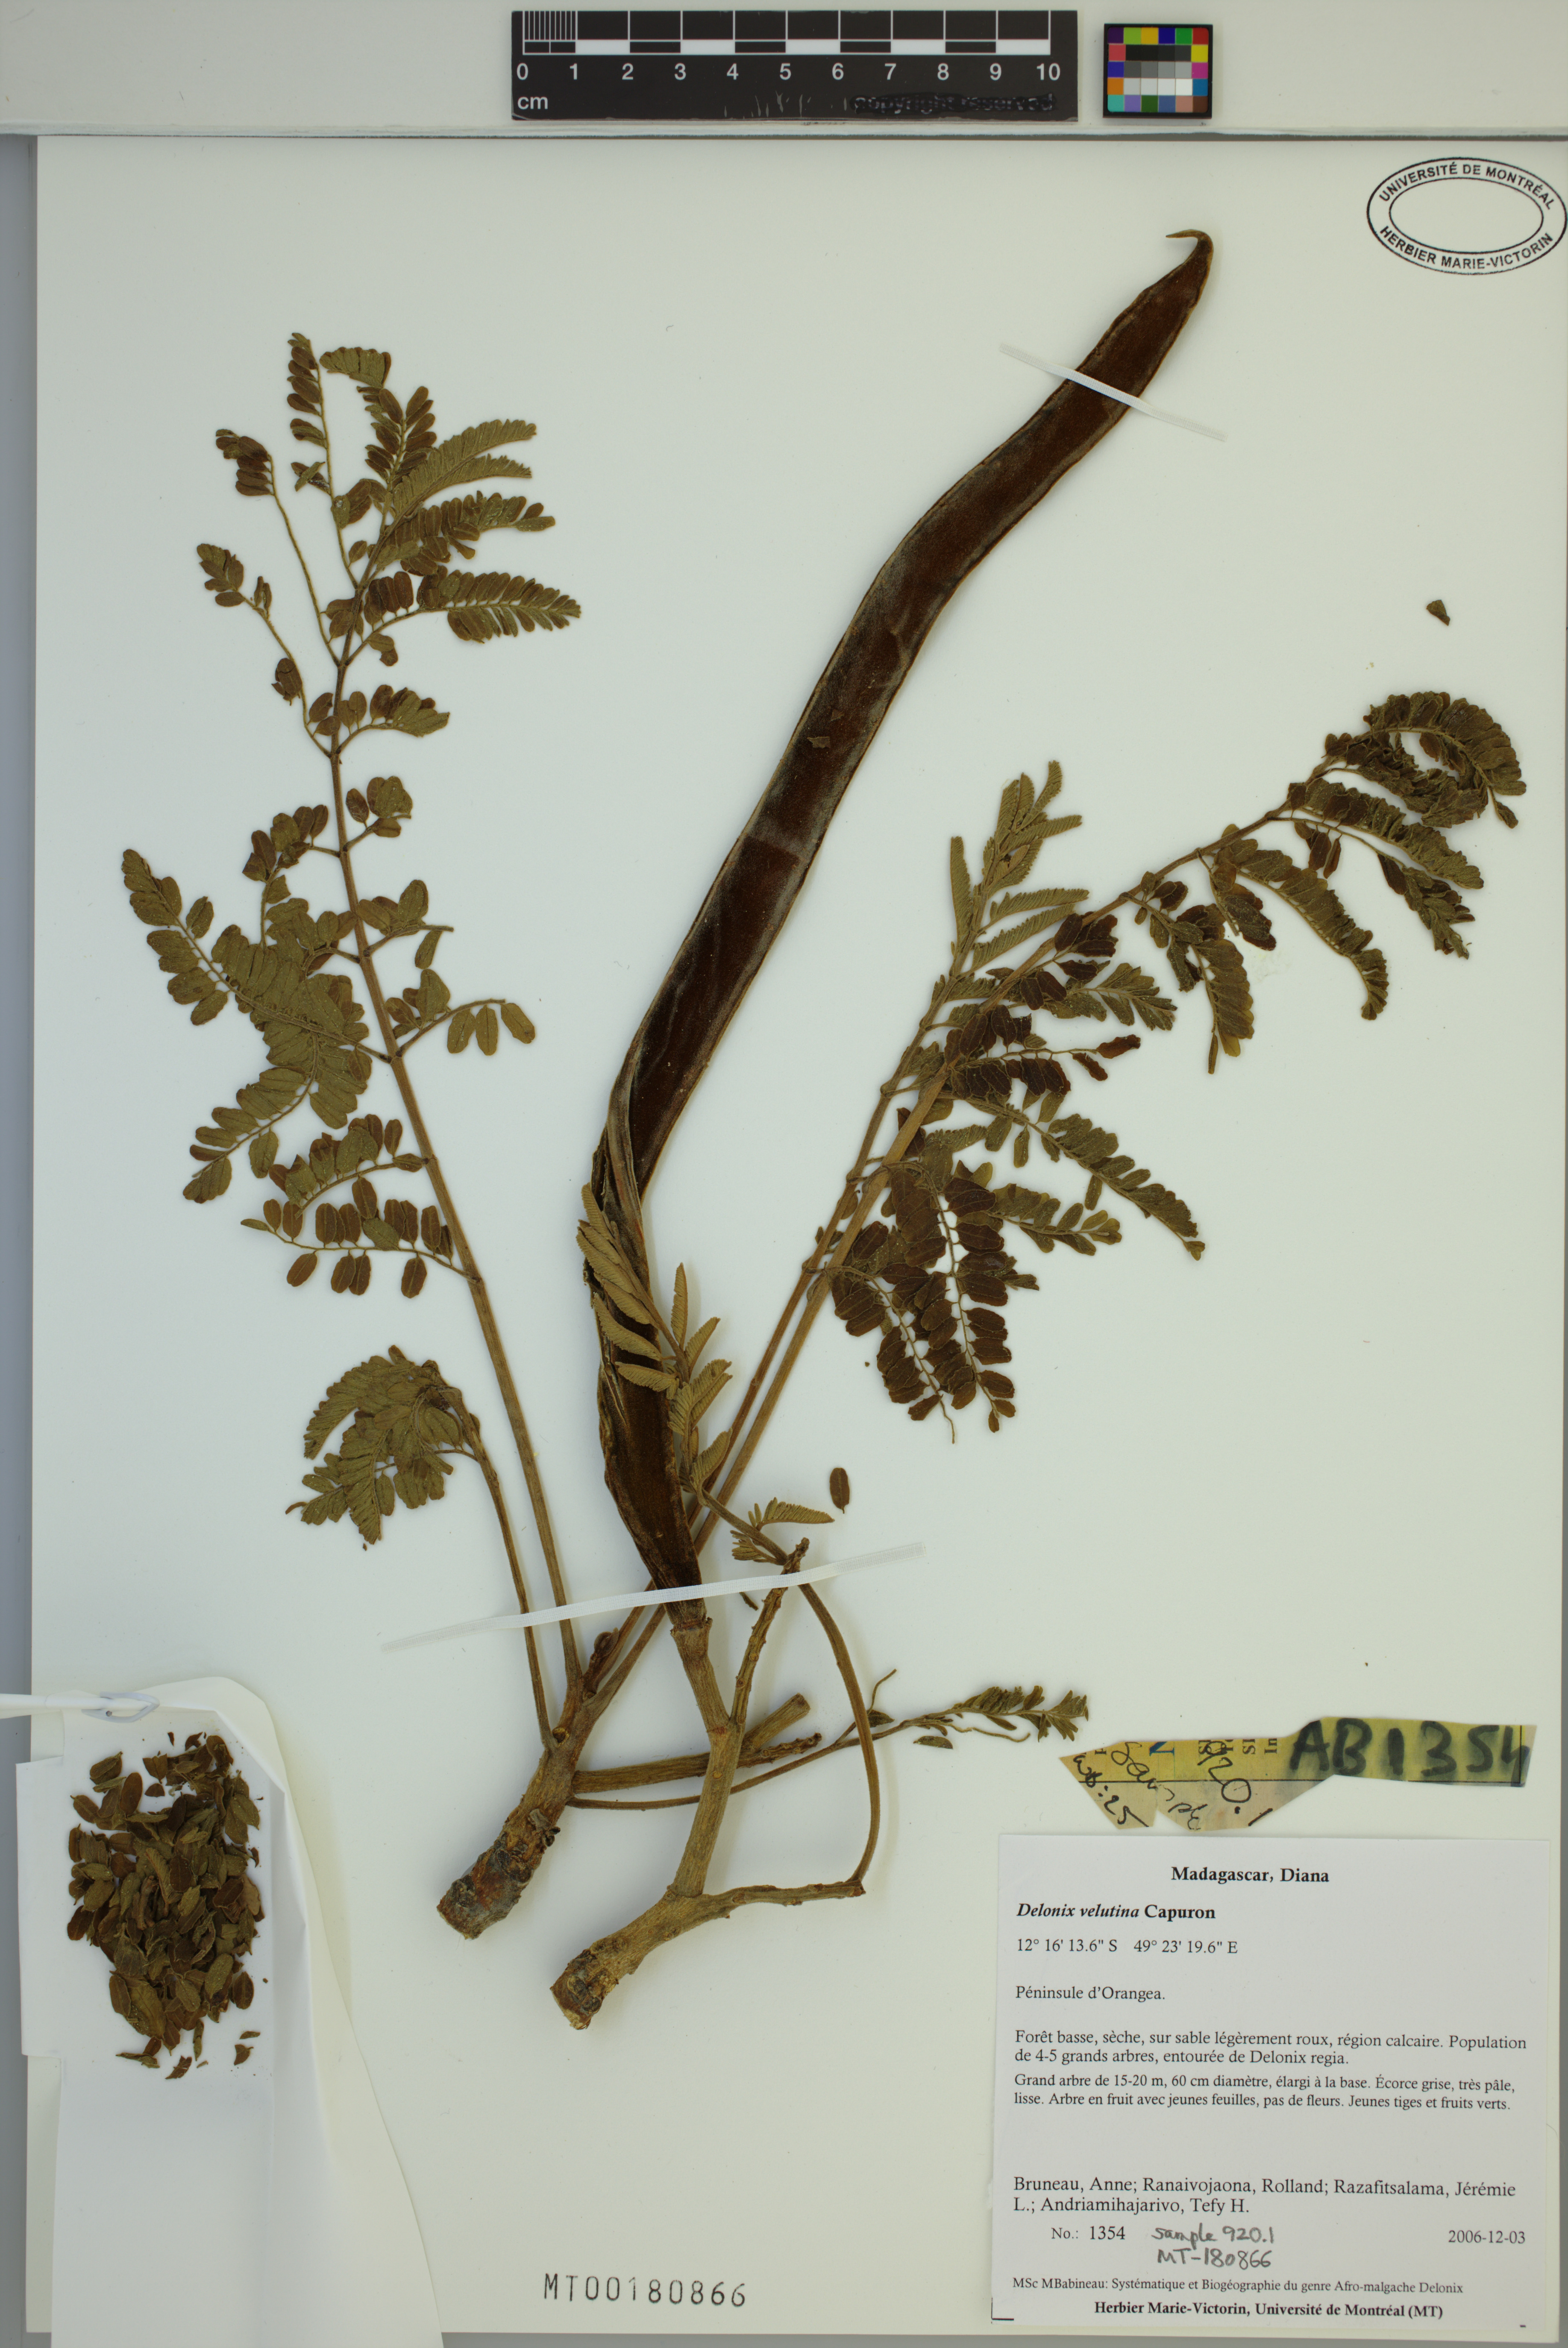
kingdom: Plantae
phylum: Tracheophyta
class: Magnoliopsida
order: Fabales
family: Fabaceae
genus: Delonix
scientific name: Delonix velutina
